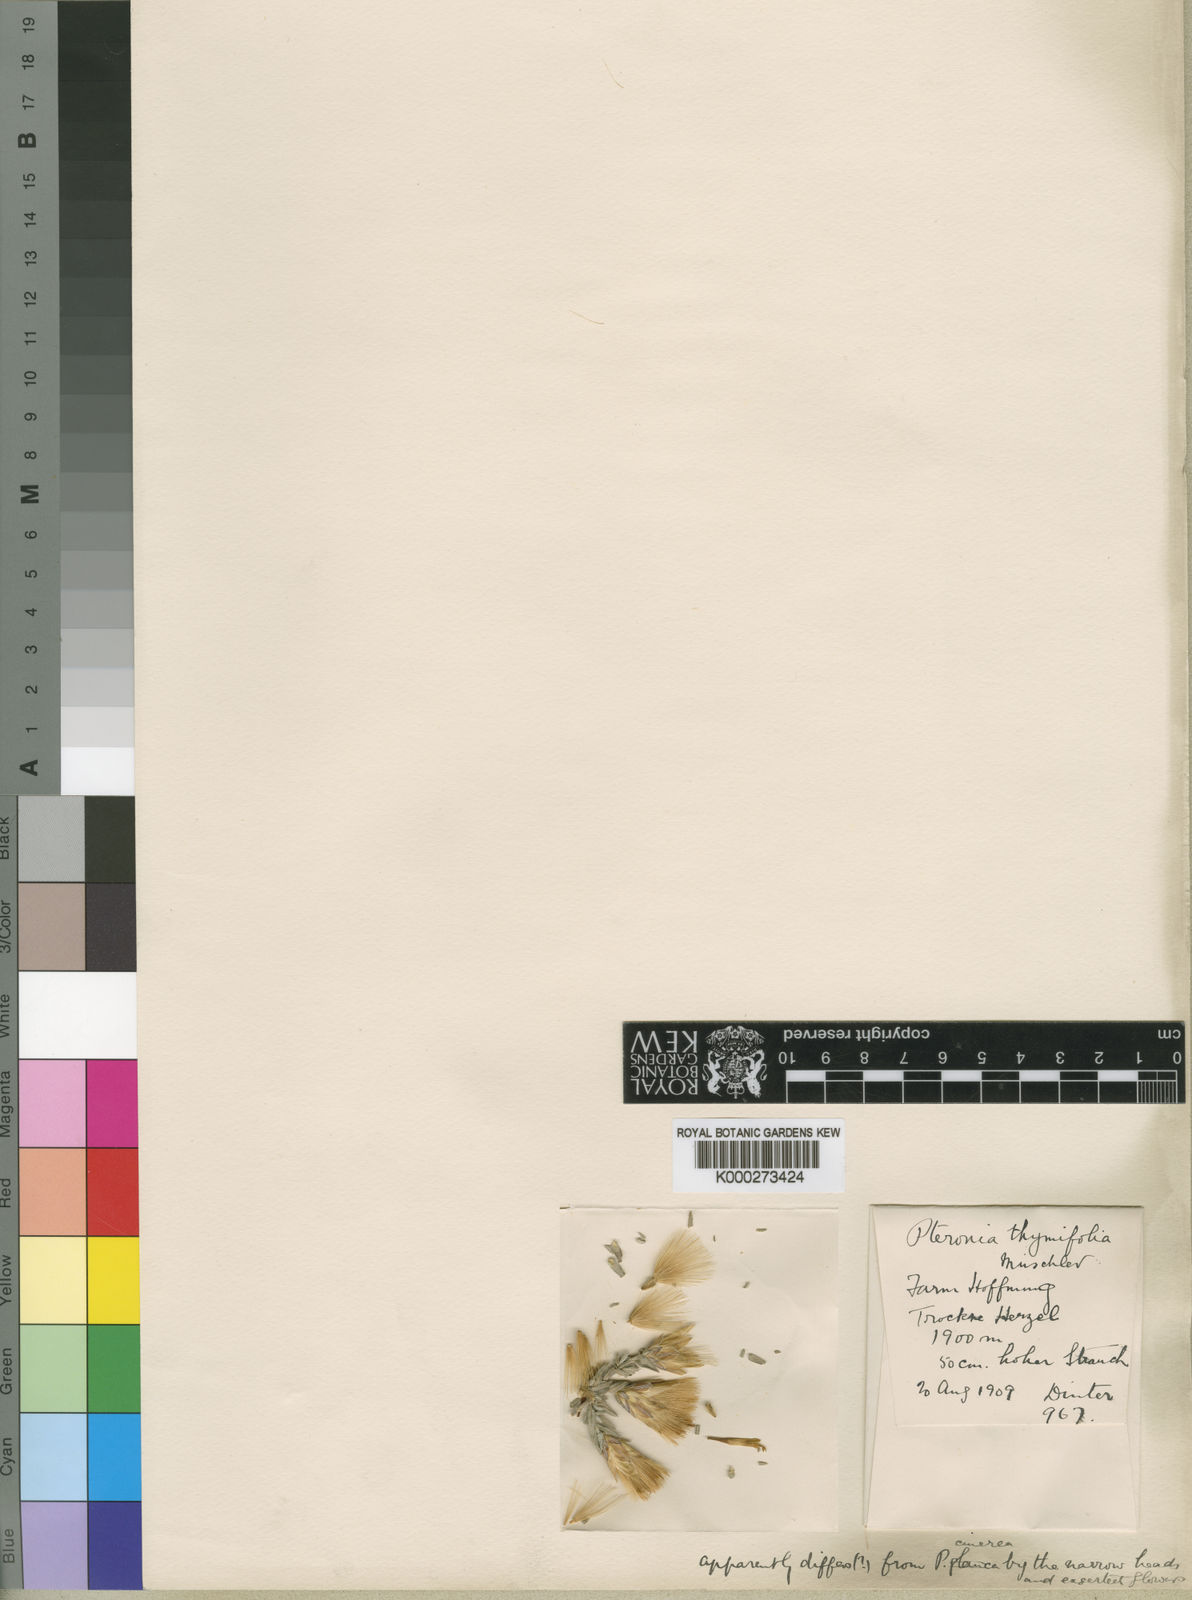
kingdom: Plantae
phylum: Tracheophyta
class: Magnoliopsida
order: Asterales
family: Asteraceae
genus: Pteronia
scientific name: Pteronia glauca
